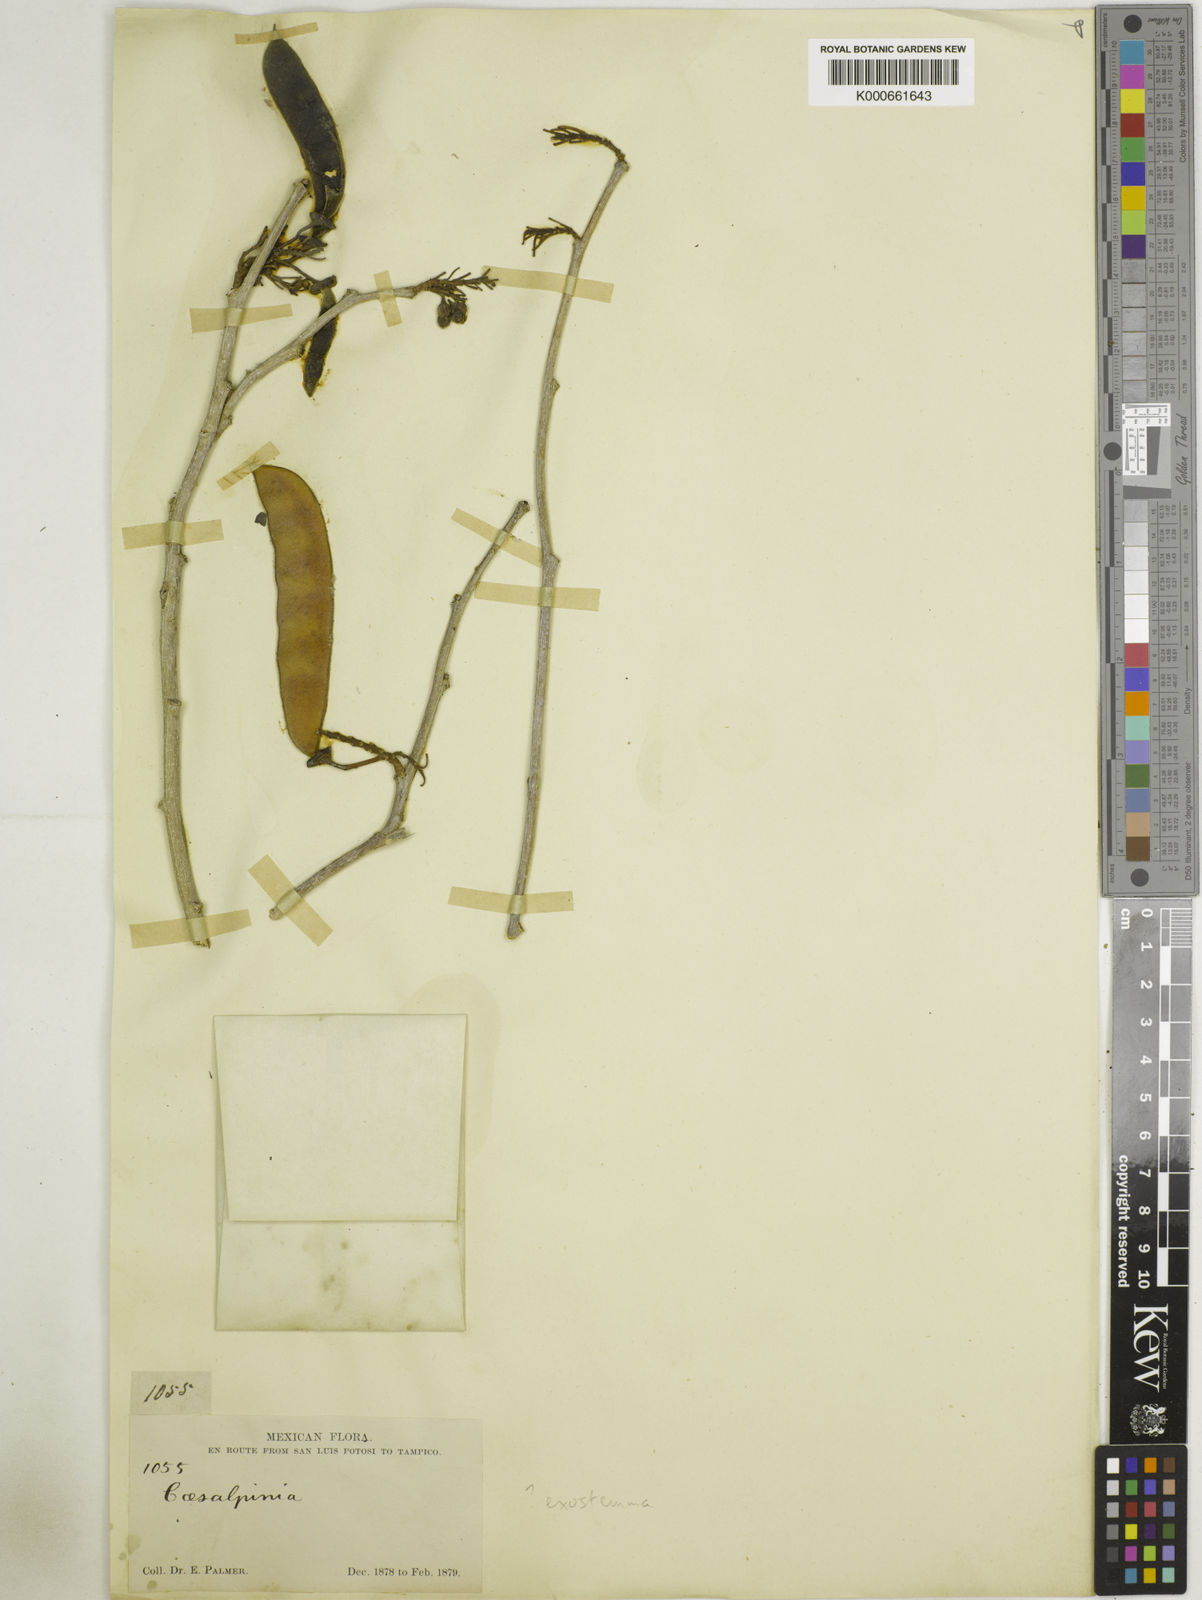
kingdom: Plantae
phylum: Tracheophyta
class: Magnoliopsida
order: Fabales
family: Fabaceae
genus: Caesalpinia
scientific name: Caesalpinia
